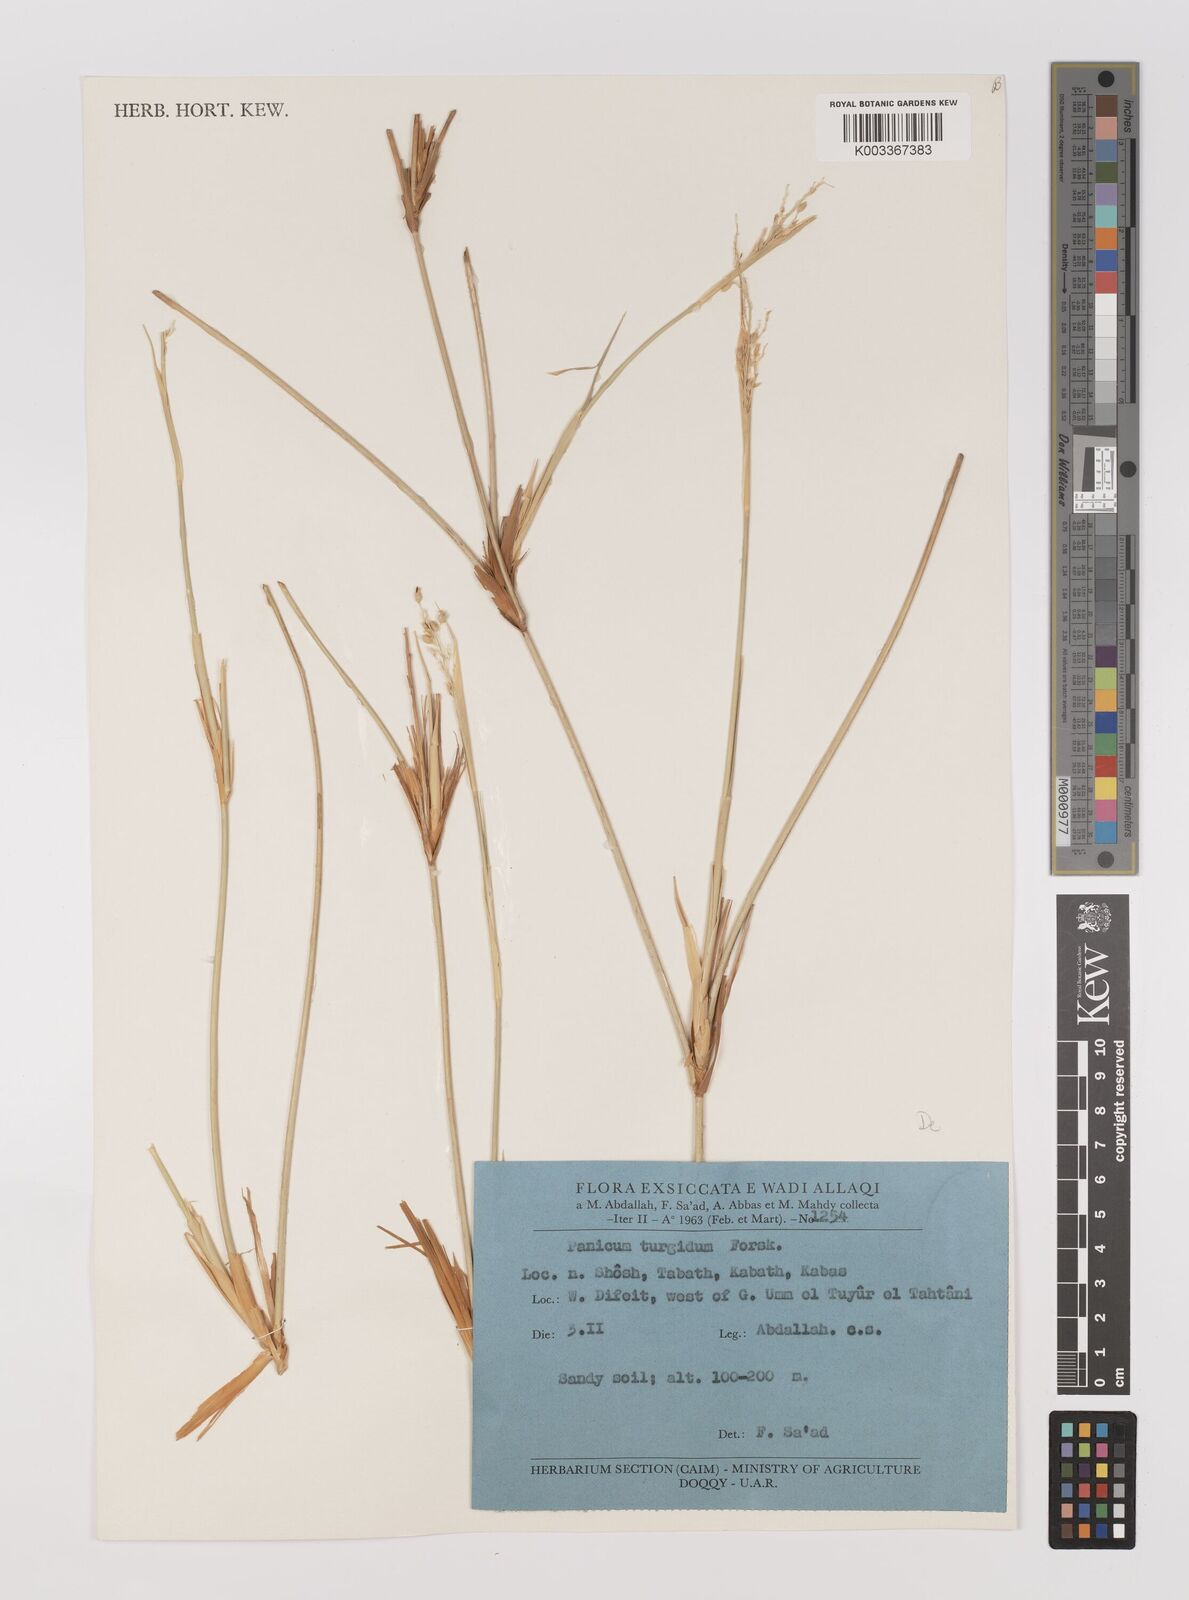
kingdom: Plantae
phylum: Tracheophyta
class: Liliopsida
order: Poales
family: Poaceae
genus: Panicum
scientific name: Panicum turgidum
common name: Desert grass
